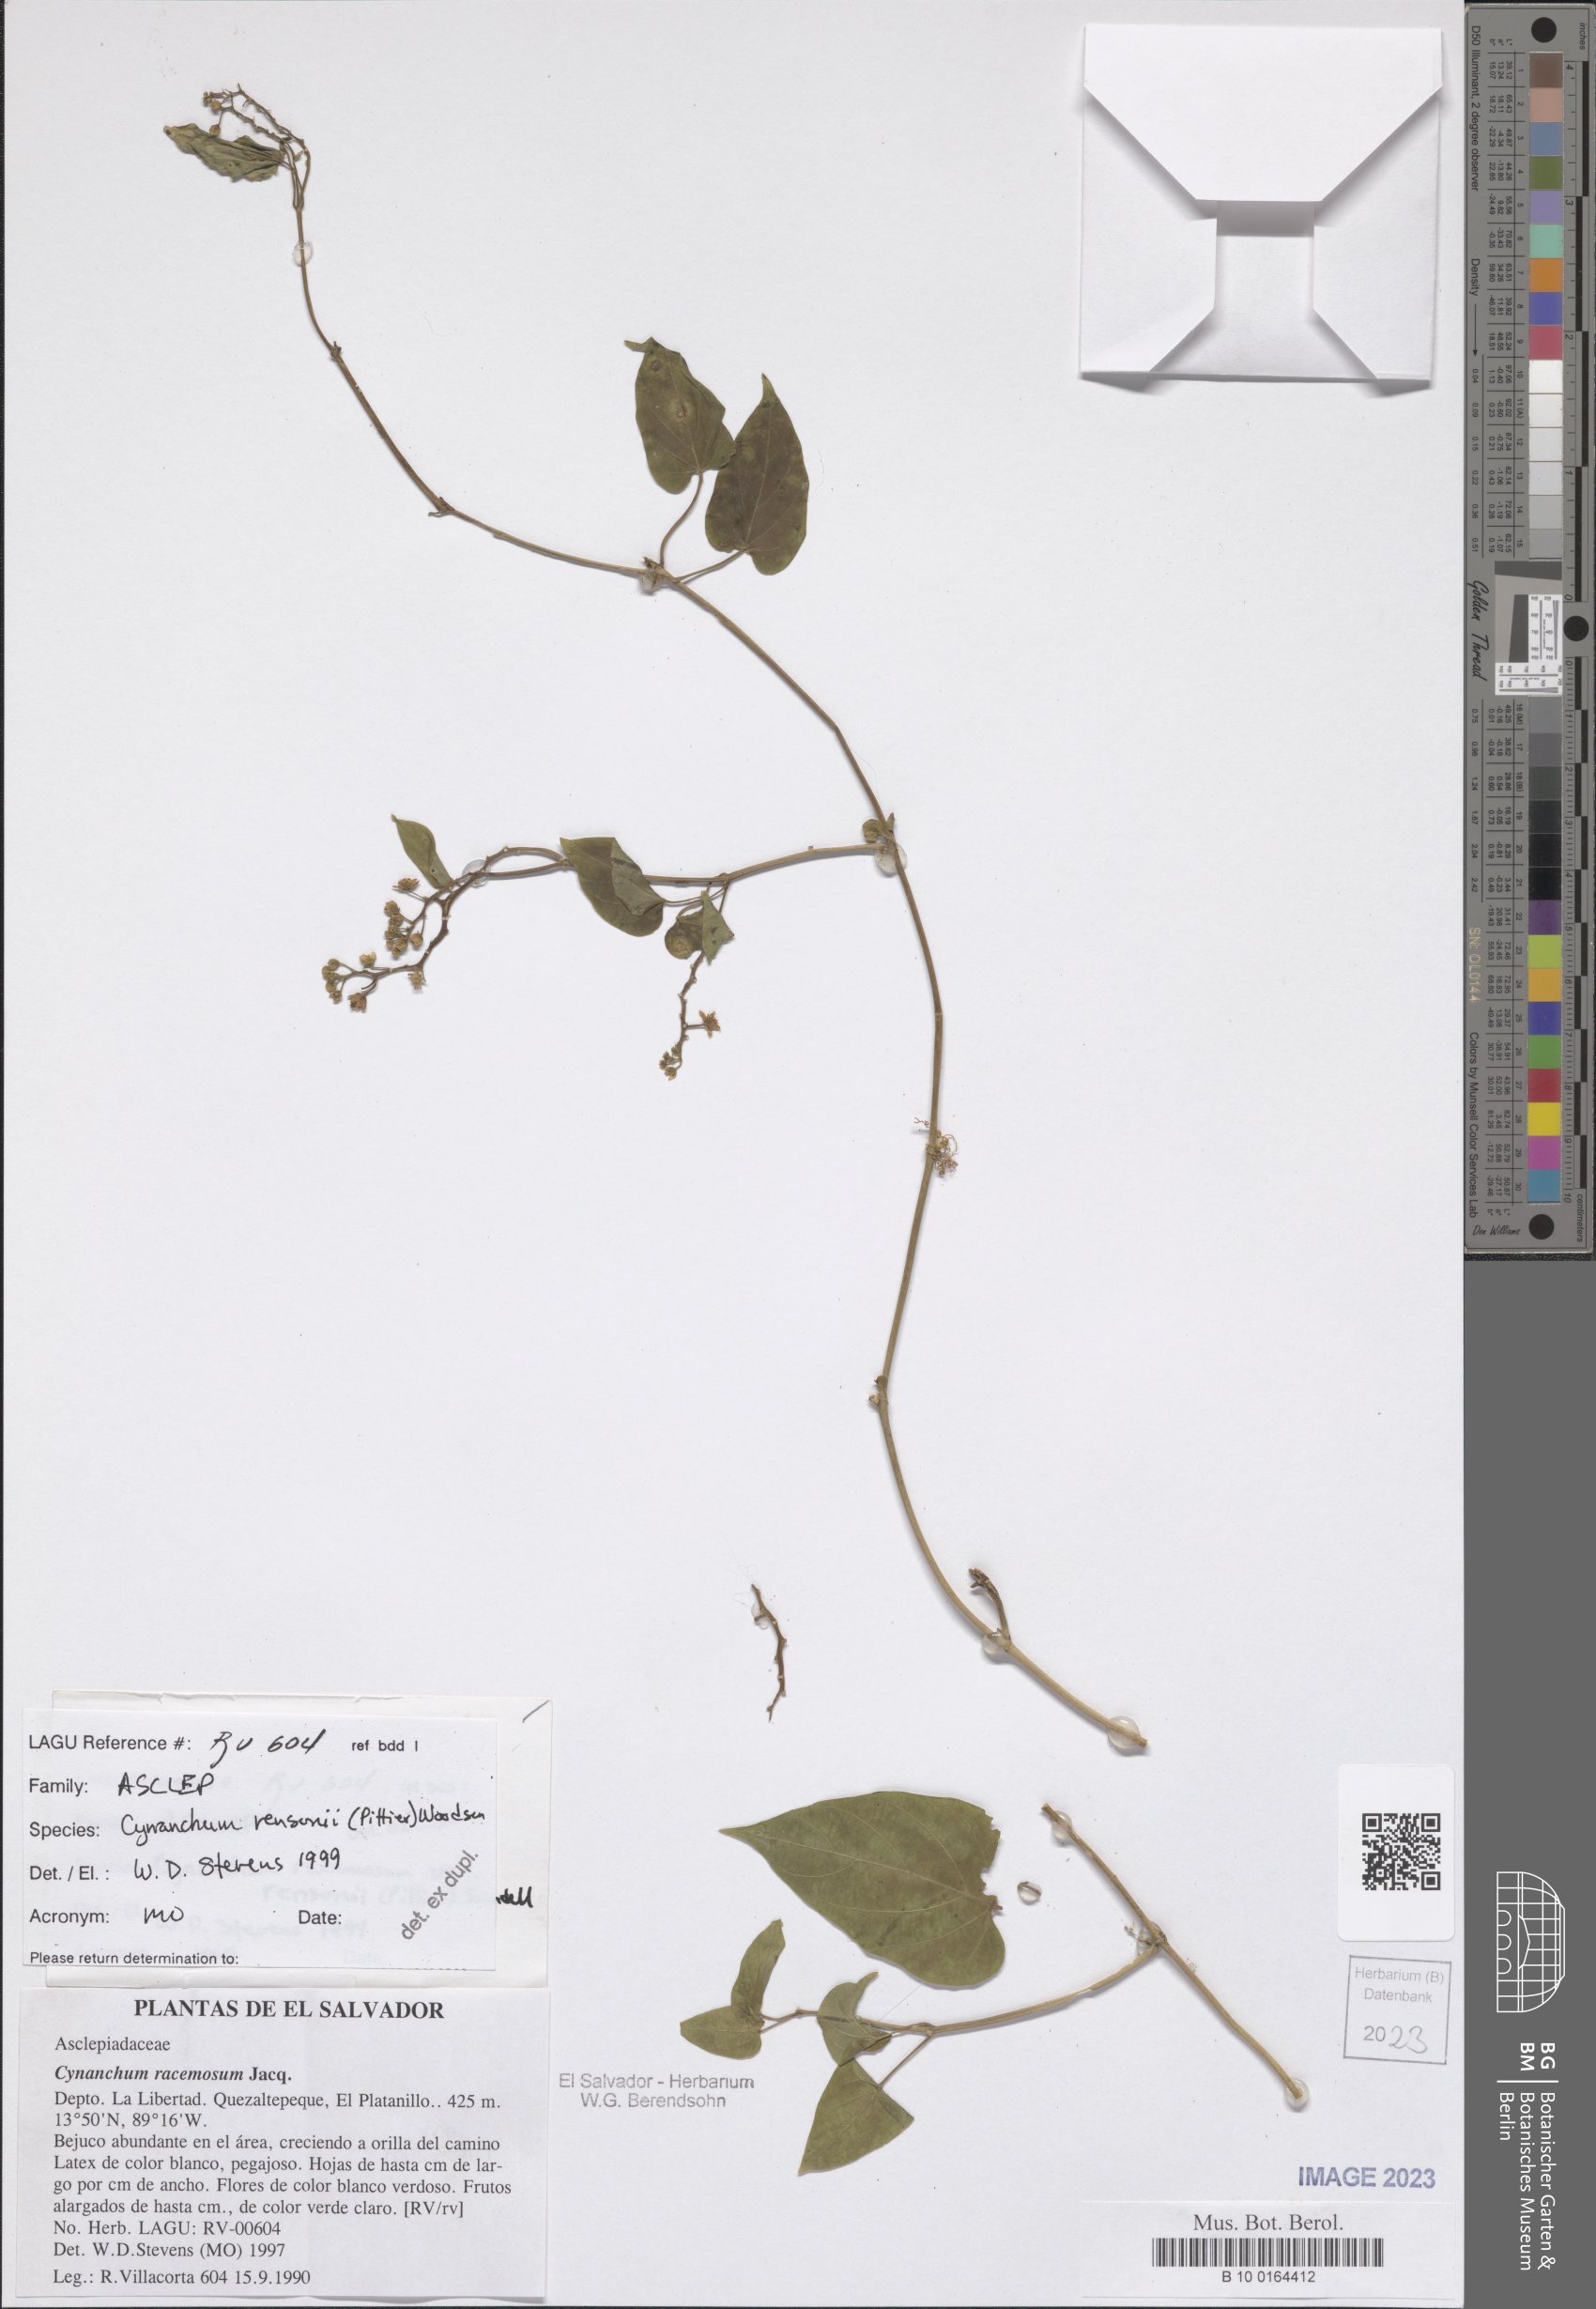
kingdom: Plantae
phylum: Tracheophyta
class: Magnoliopsida
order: Gentianales
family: Apocynaceae
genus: Cynanchum
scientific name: Cynanchum rensonii
